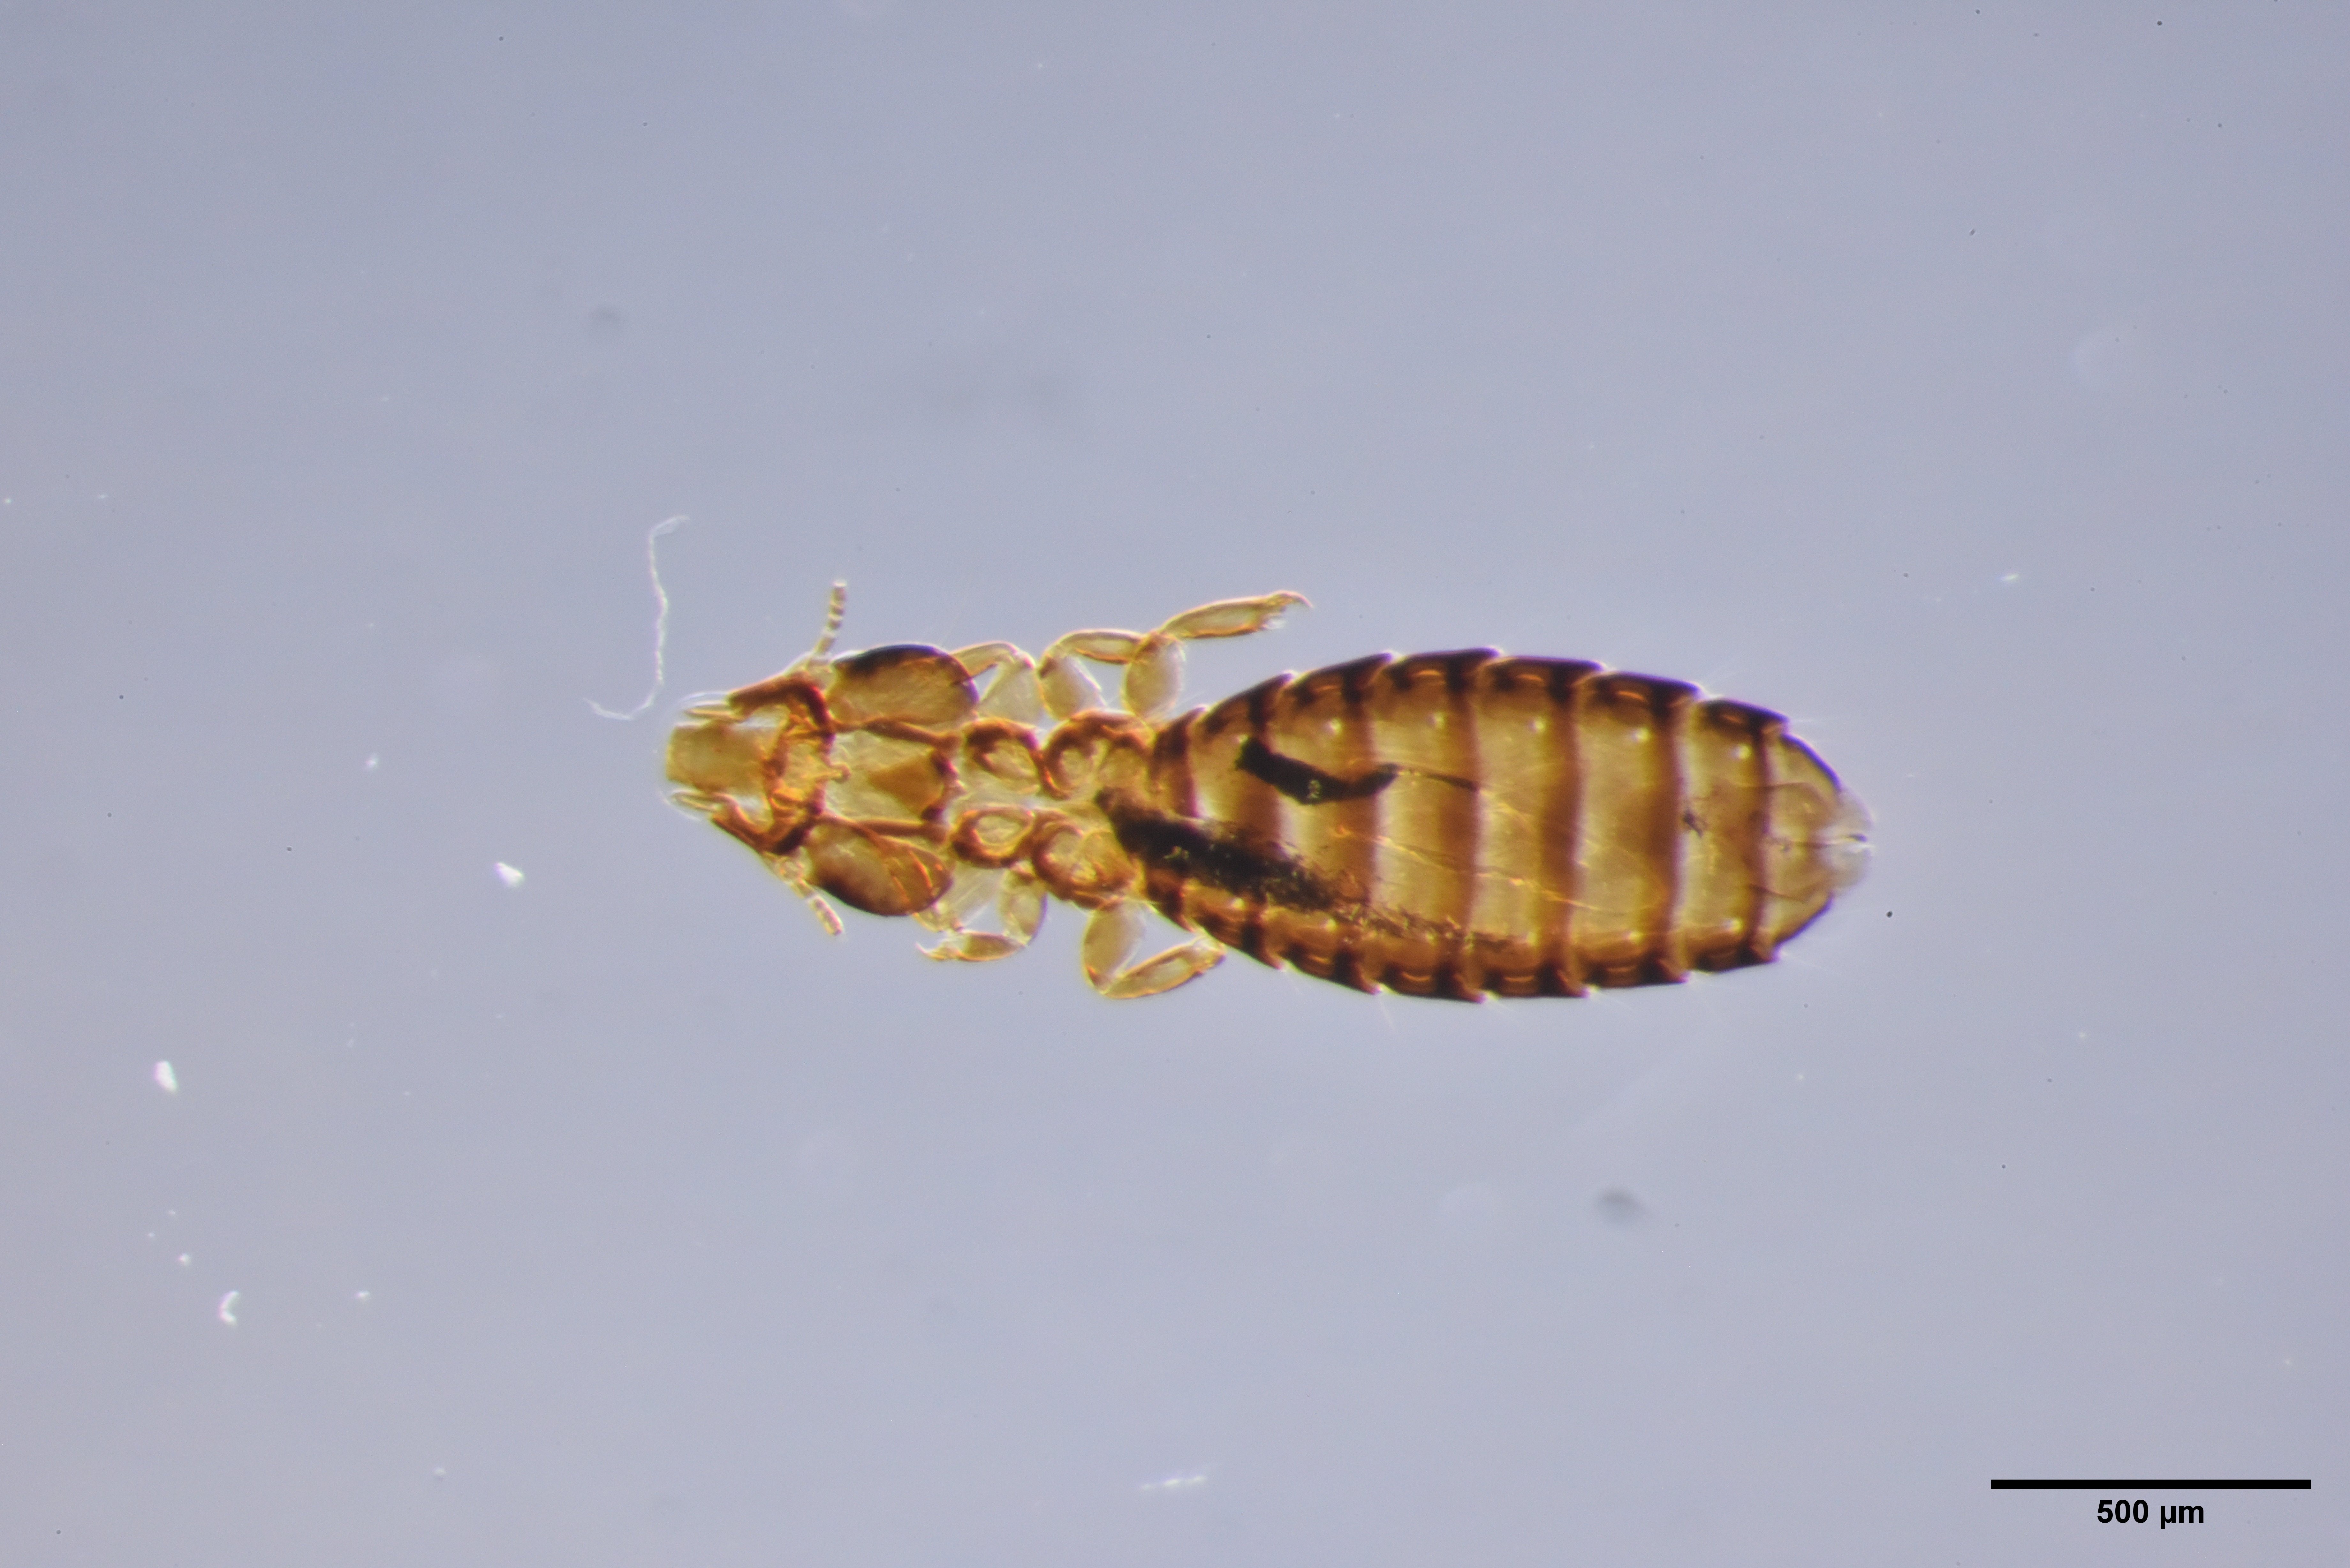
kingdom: Animalia
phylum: Arthropoda
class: Insecta
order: Psocodea
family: Philopteridae
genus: Saemundssonia
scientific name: Saemundssonia limosae
